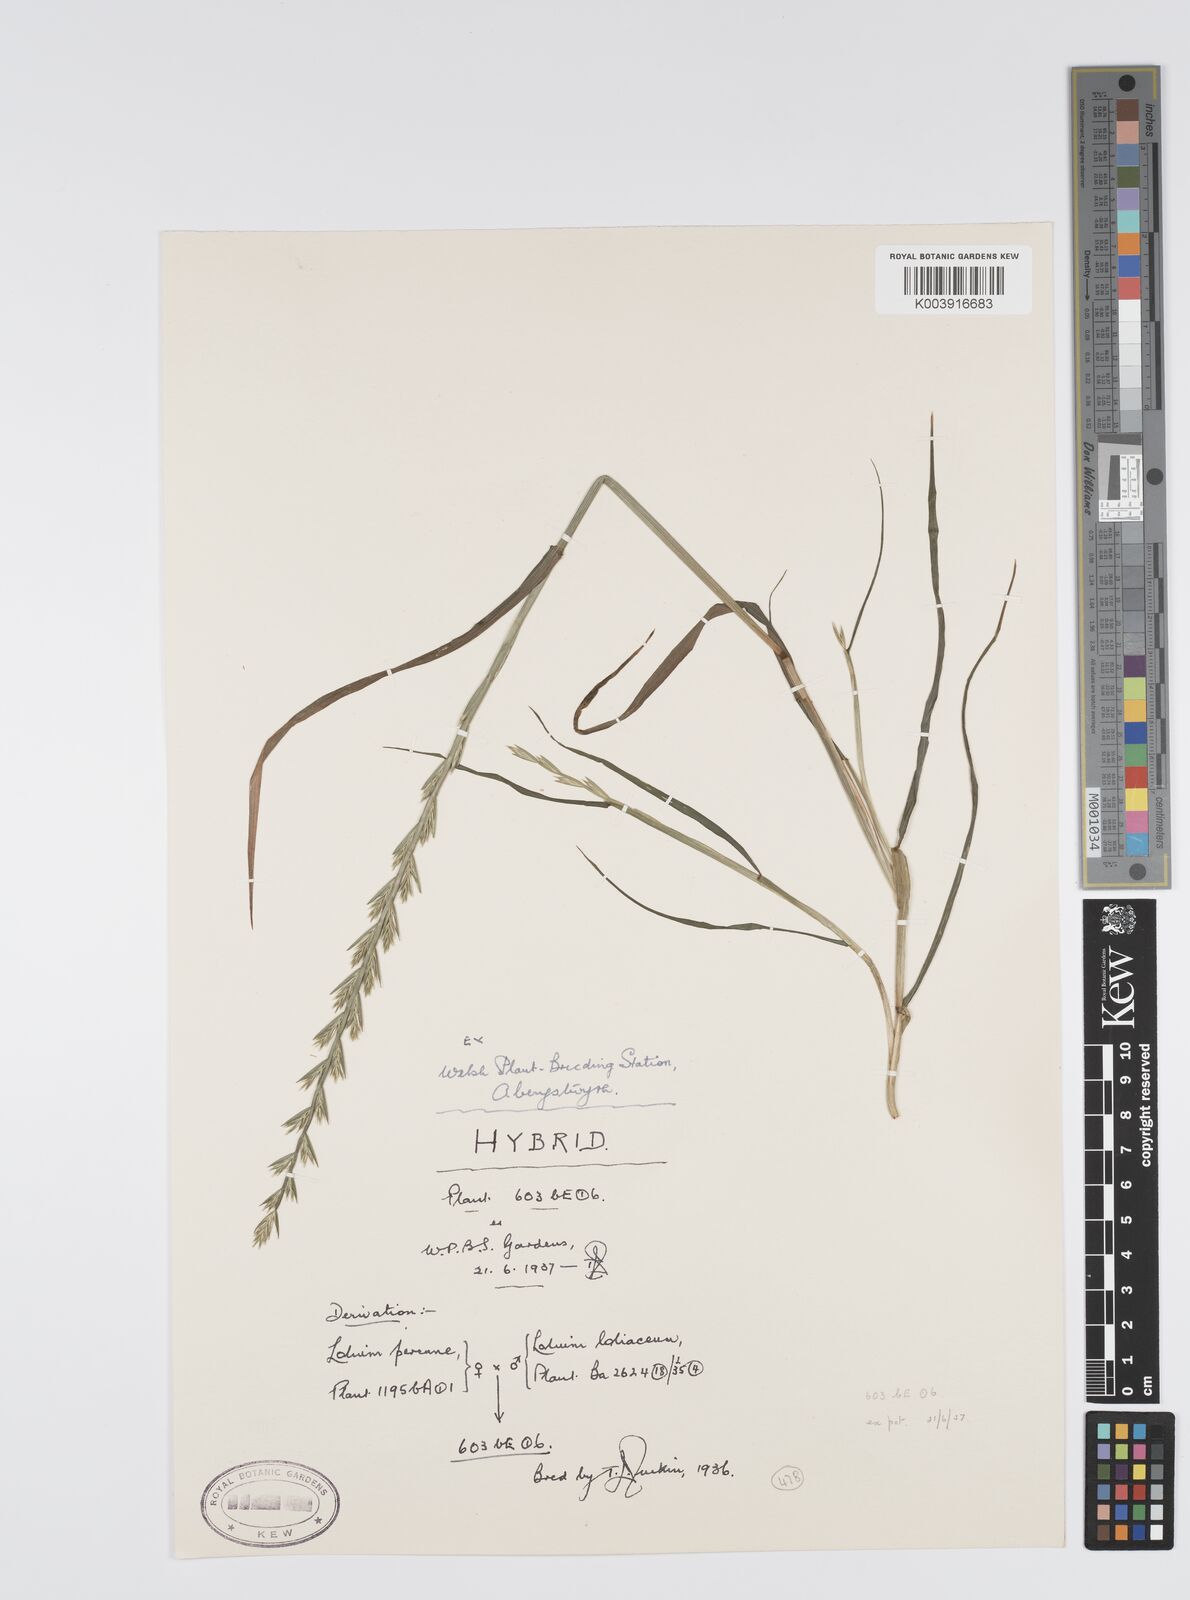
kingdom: Plantae
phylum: Tracheophyta
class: Liliopsida
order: Poales
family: Poaceae
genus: Lolium
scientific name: Lolium perenne
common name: Perennial ryegrass
